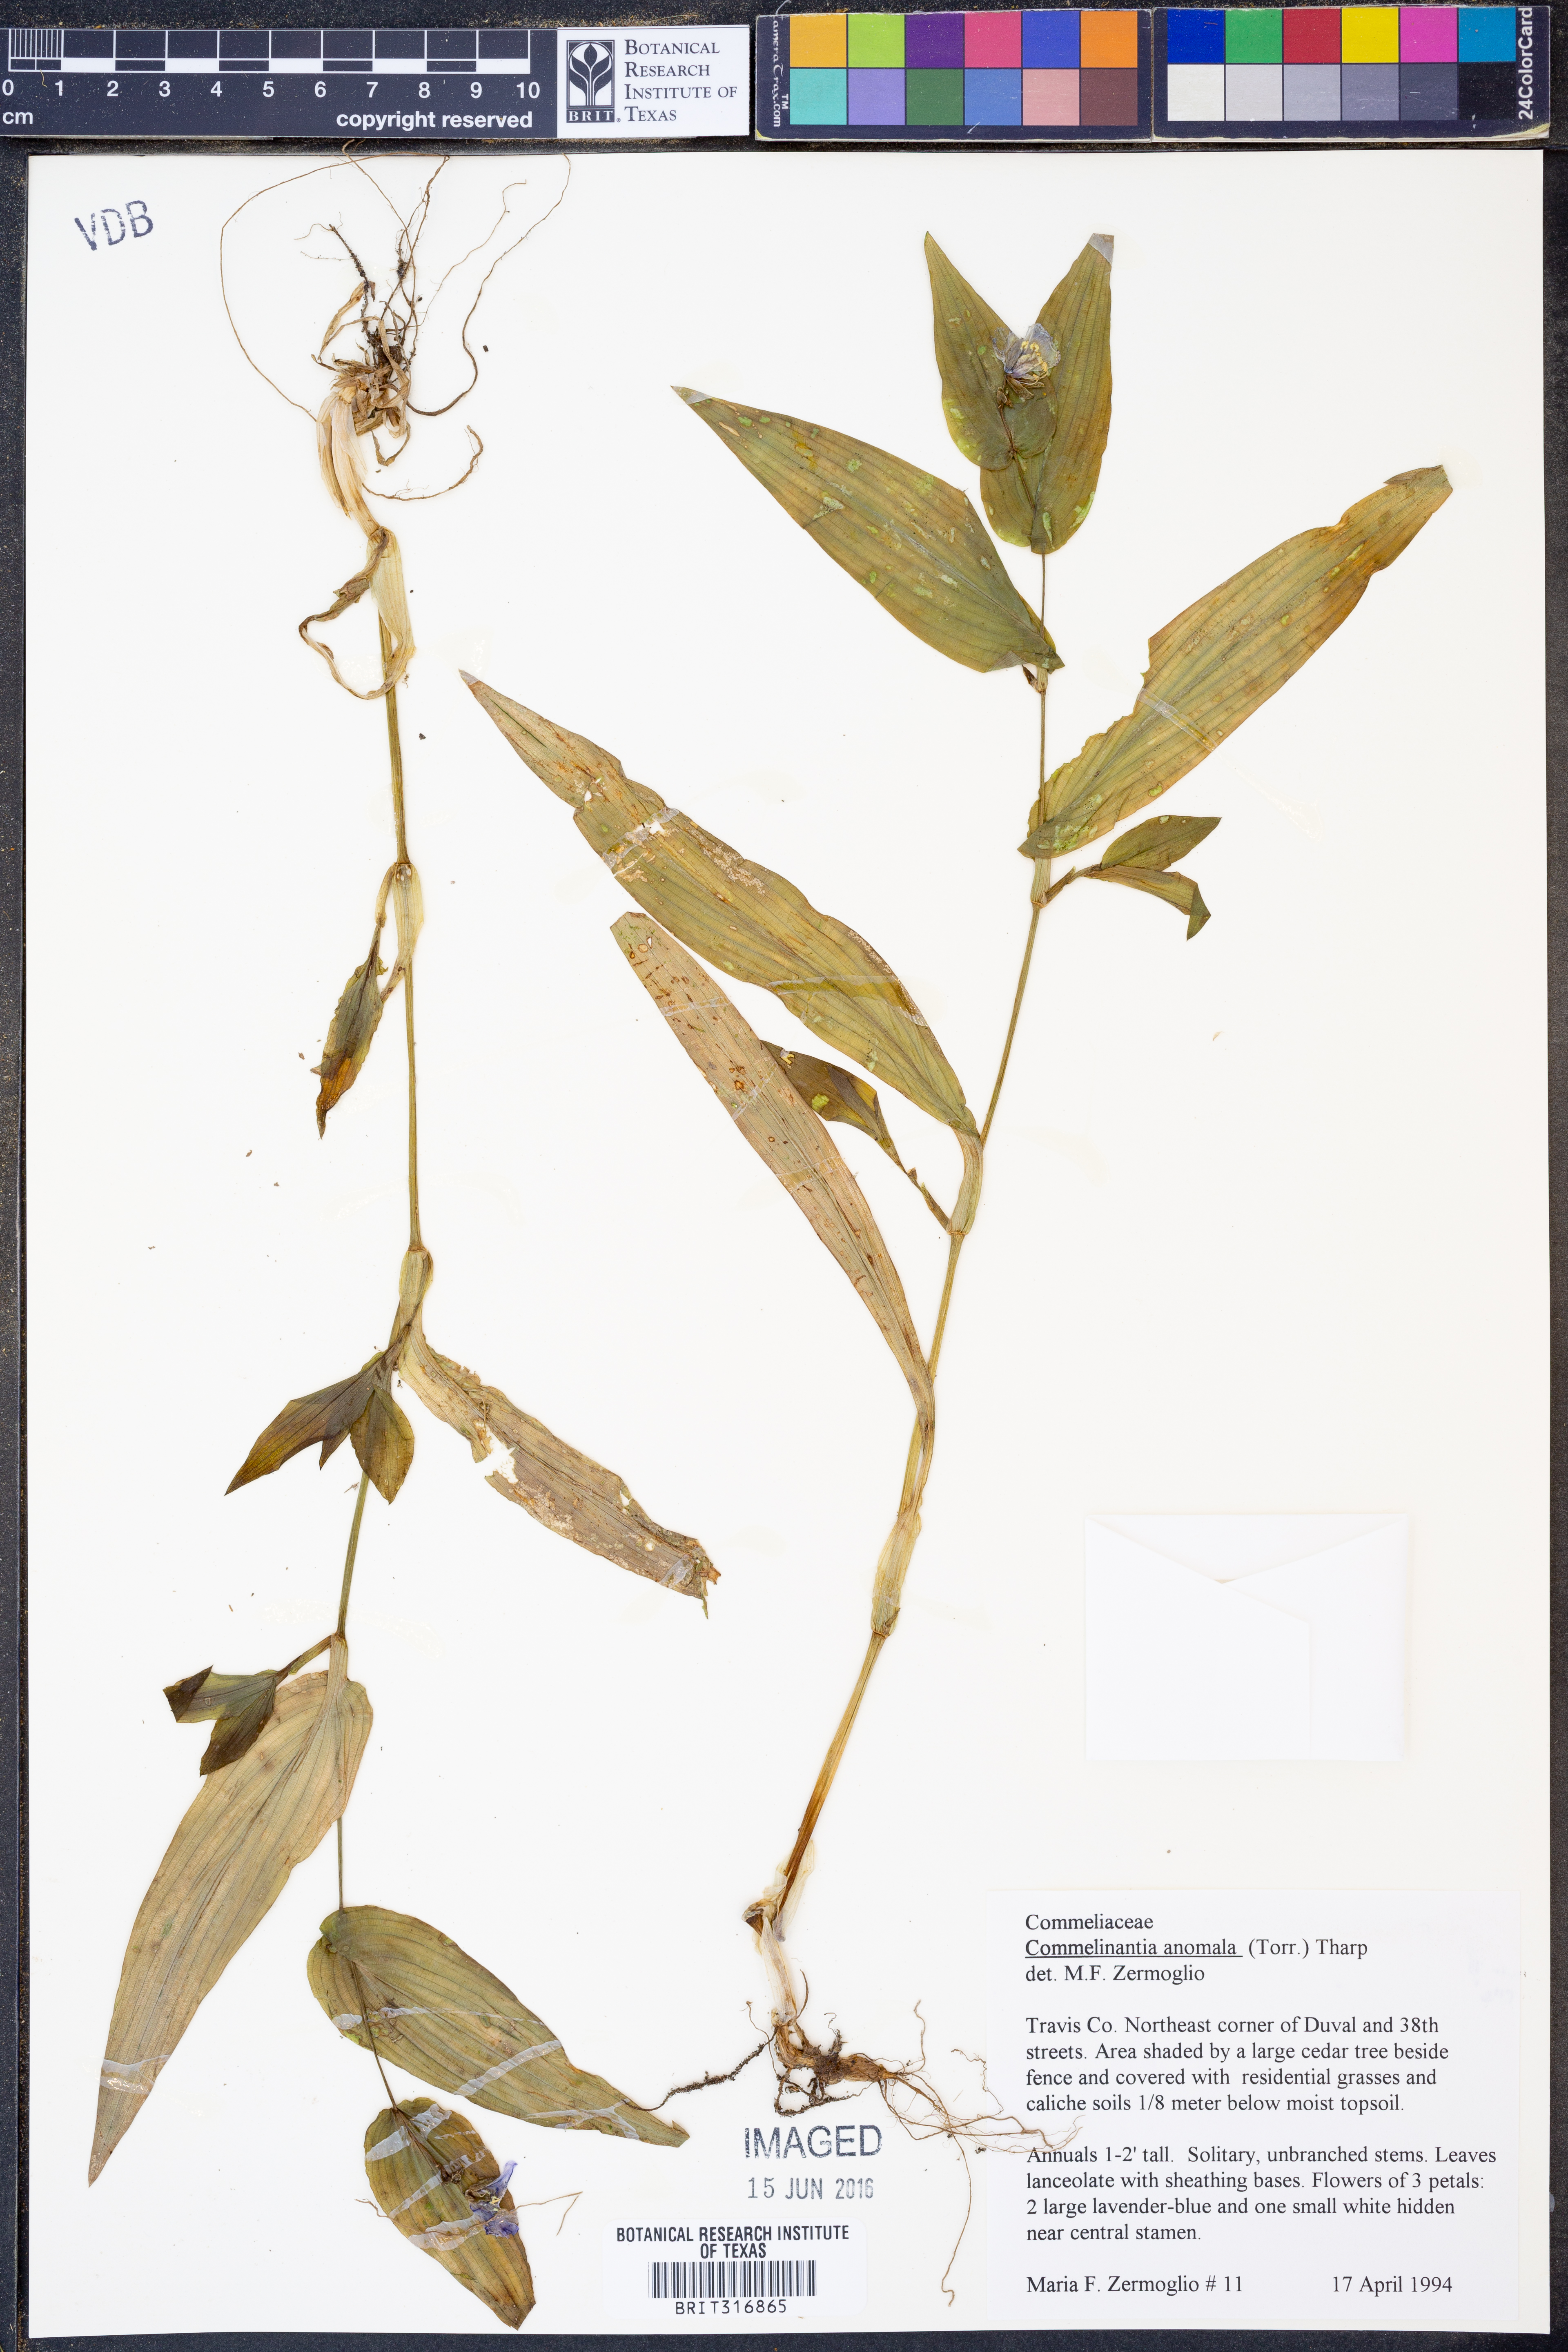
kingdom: Plantae
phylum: Tracheophyta
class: Liliopsida
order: Commelinales
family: Commelinaceae
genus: Tinantia
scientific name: Tinantia anomala
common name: False dayflower
